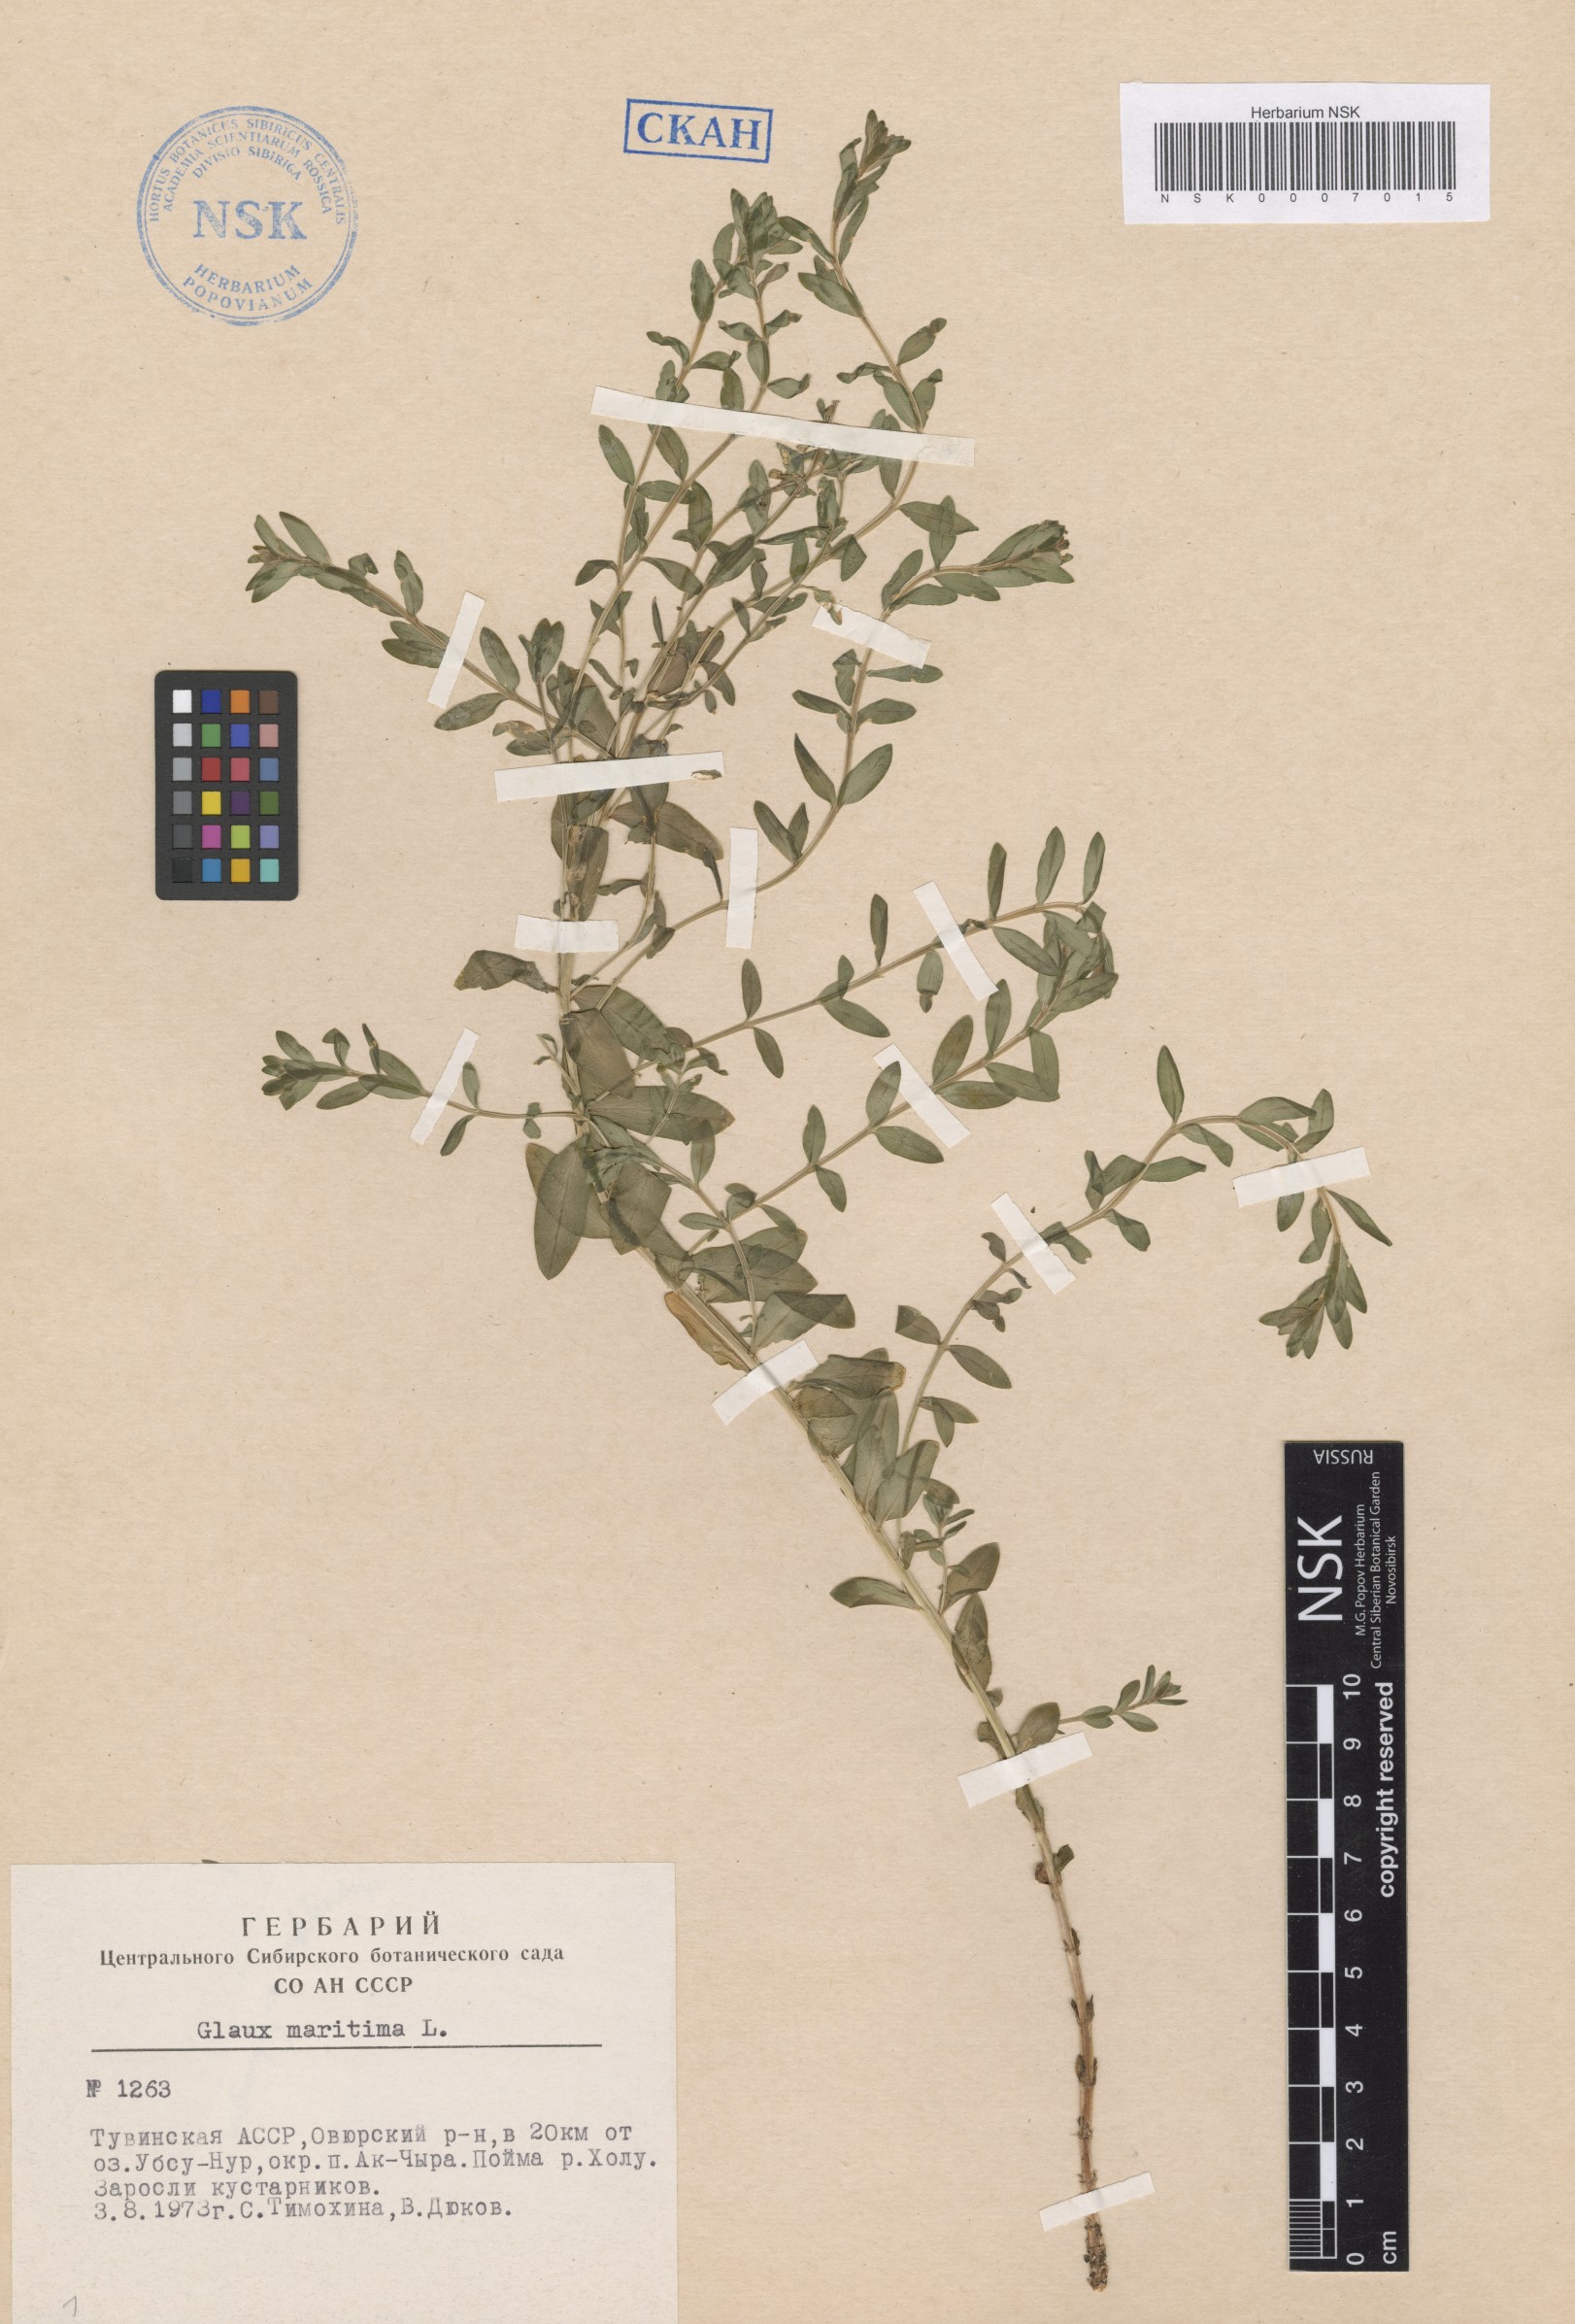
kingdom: Plantae
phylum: Tracheophyta
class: Magnoliopsida
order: Ericales
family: Primulaceae
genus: Lysimachia
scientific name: Lysimachia maritima
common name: Sea milkwort
